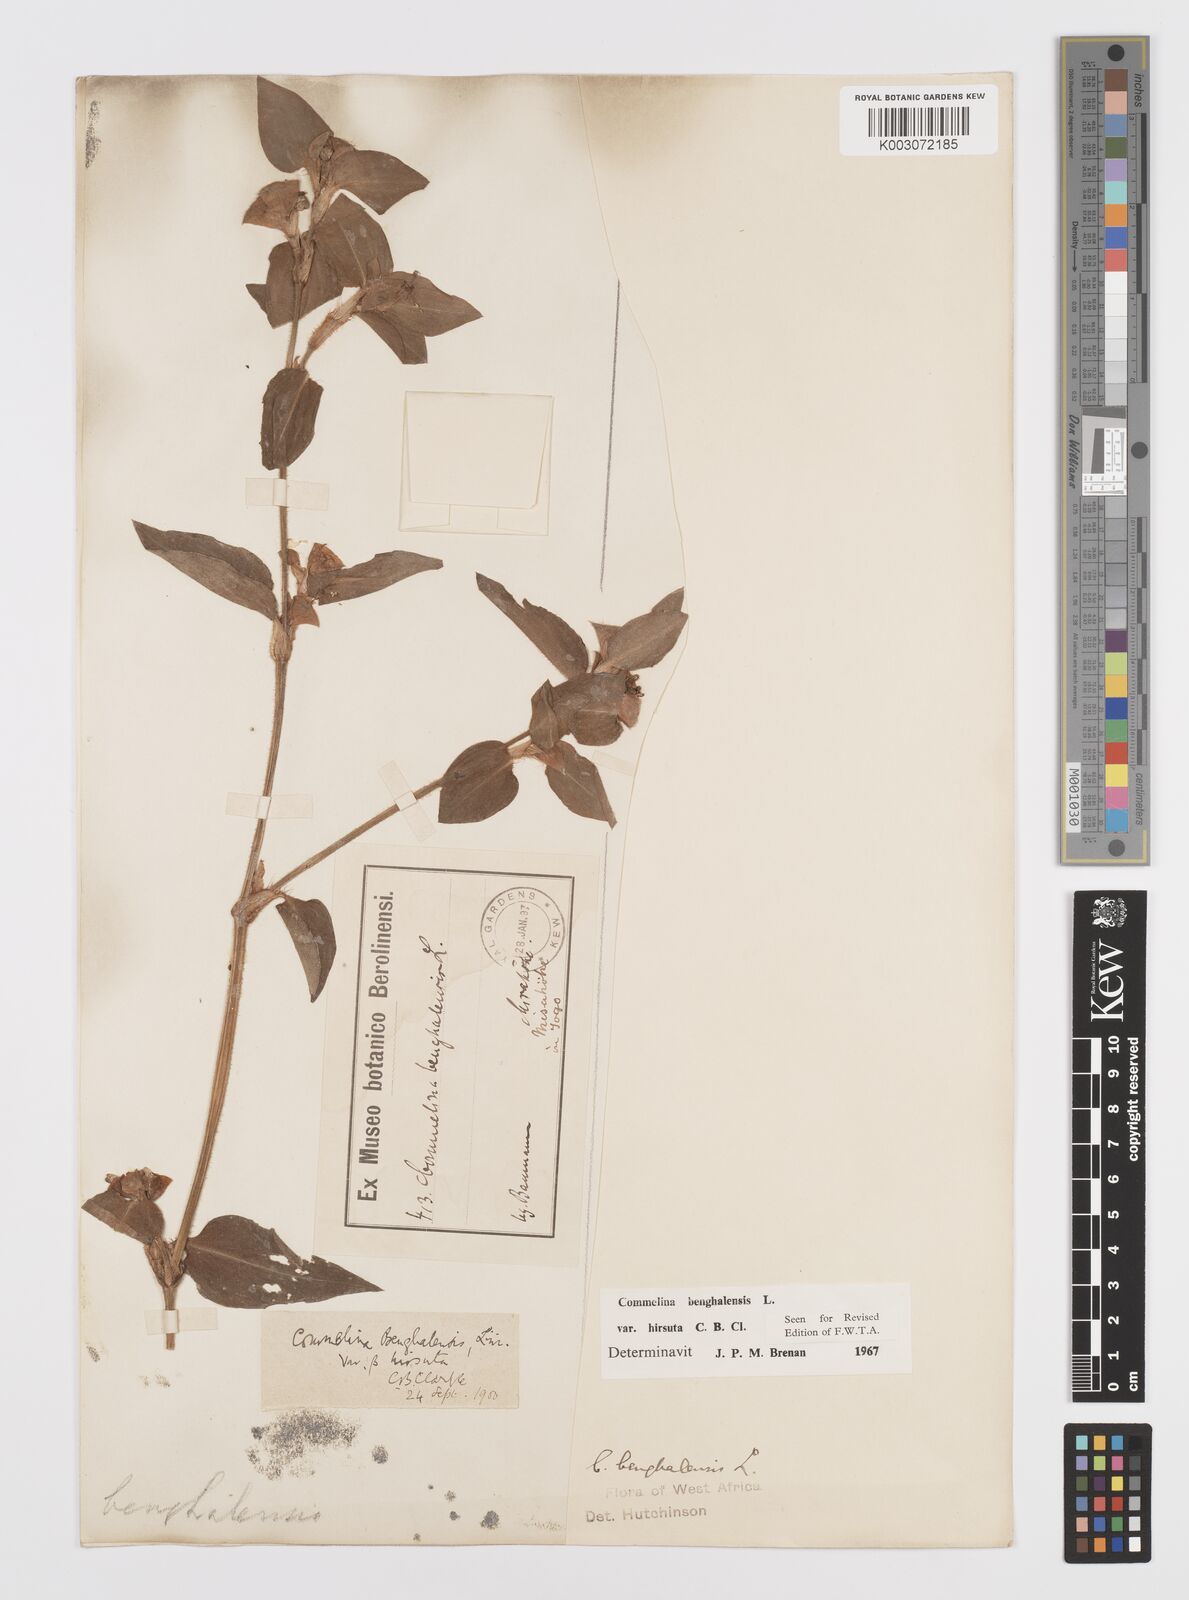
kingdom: Plantae
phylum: Tracheophyta
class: Liliopsida
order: Commelinales
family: Commelinaceae
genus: Commelina
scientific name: Commelina benghalensis
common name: Jio
